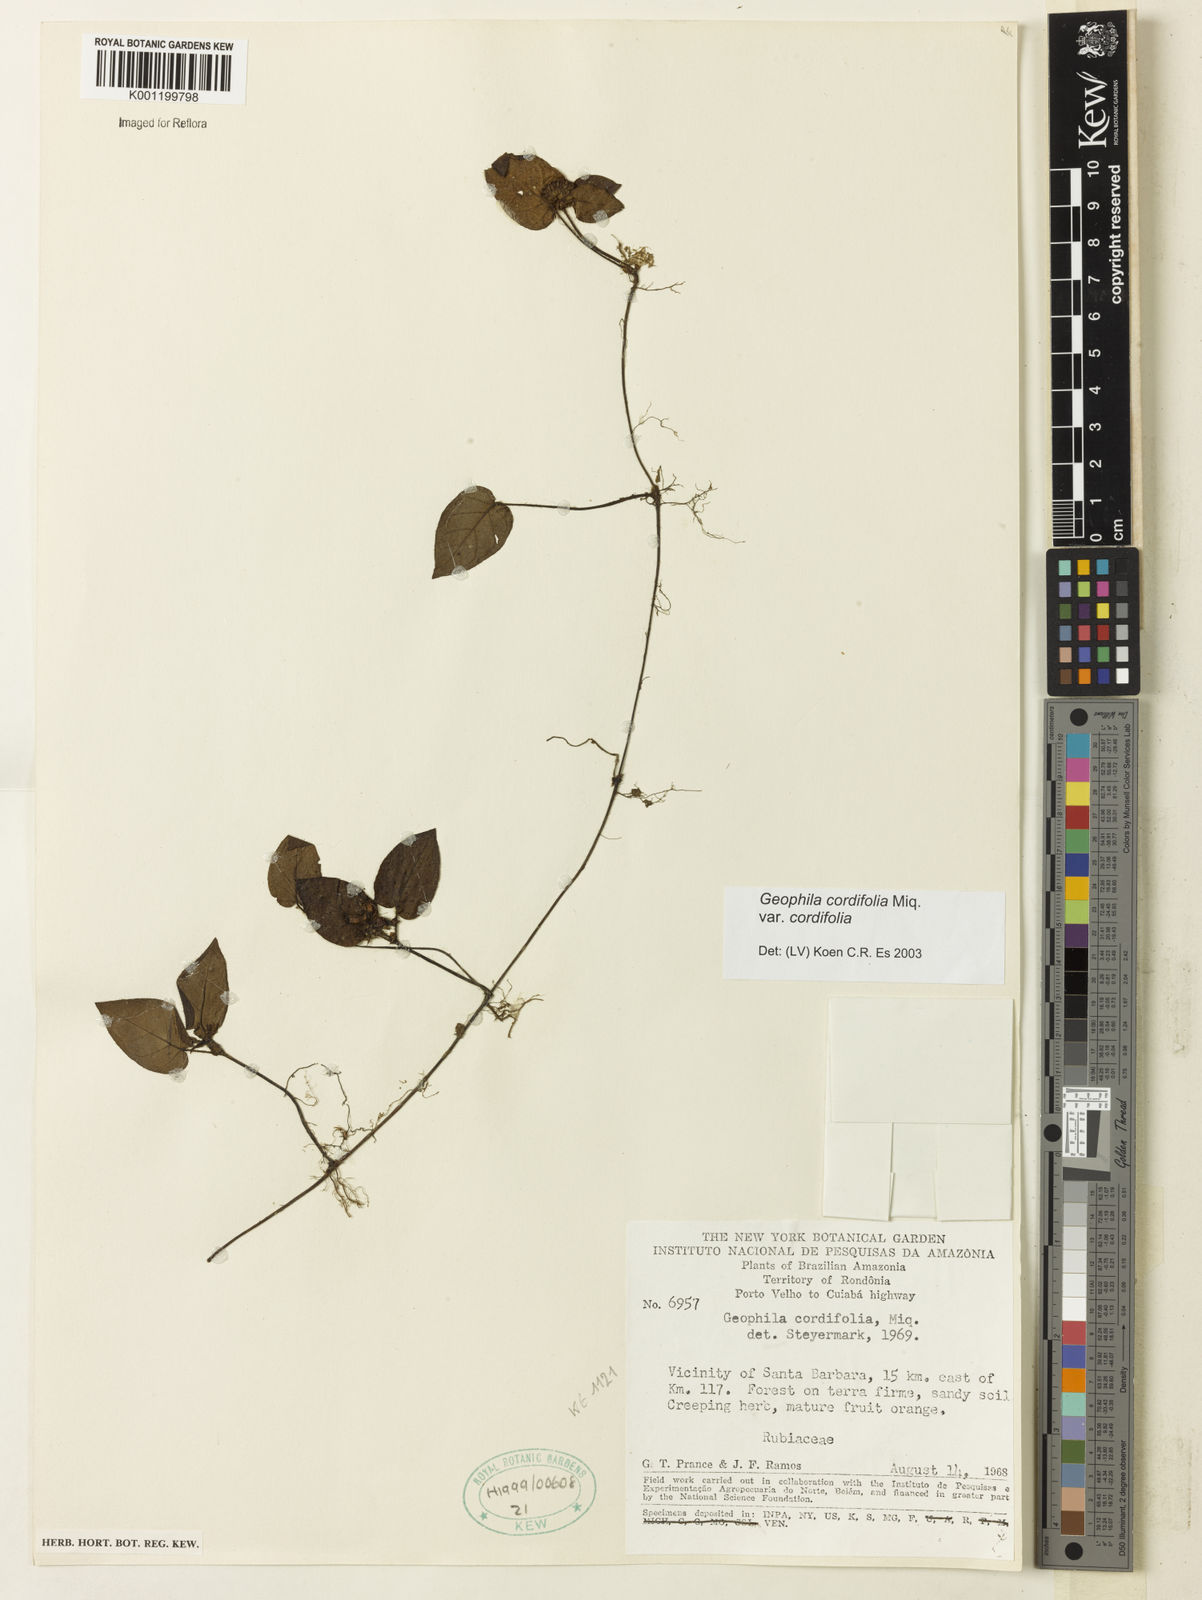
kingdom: Plantae
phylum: Tracheophyta
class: Magnoliopsida
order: Gentianales
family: Rubiaceae
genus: Geophila
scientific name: Geophila cordifolia
